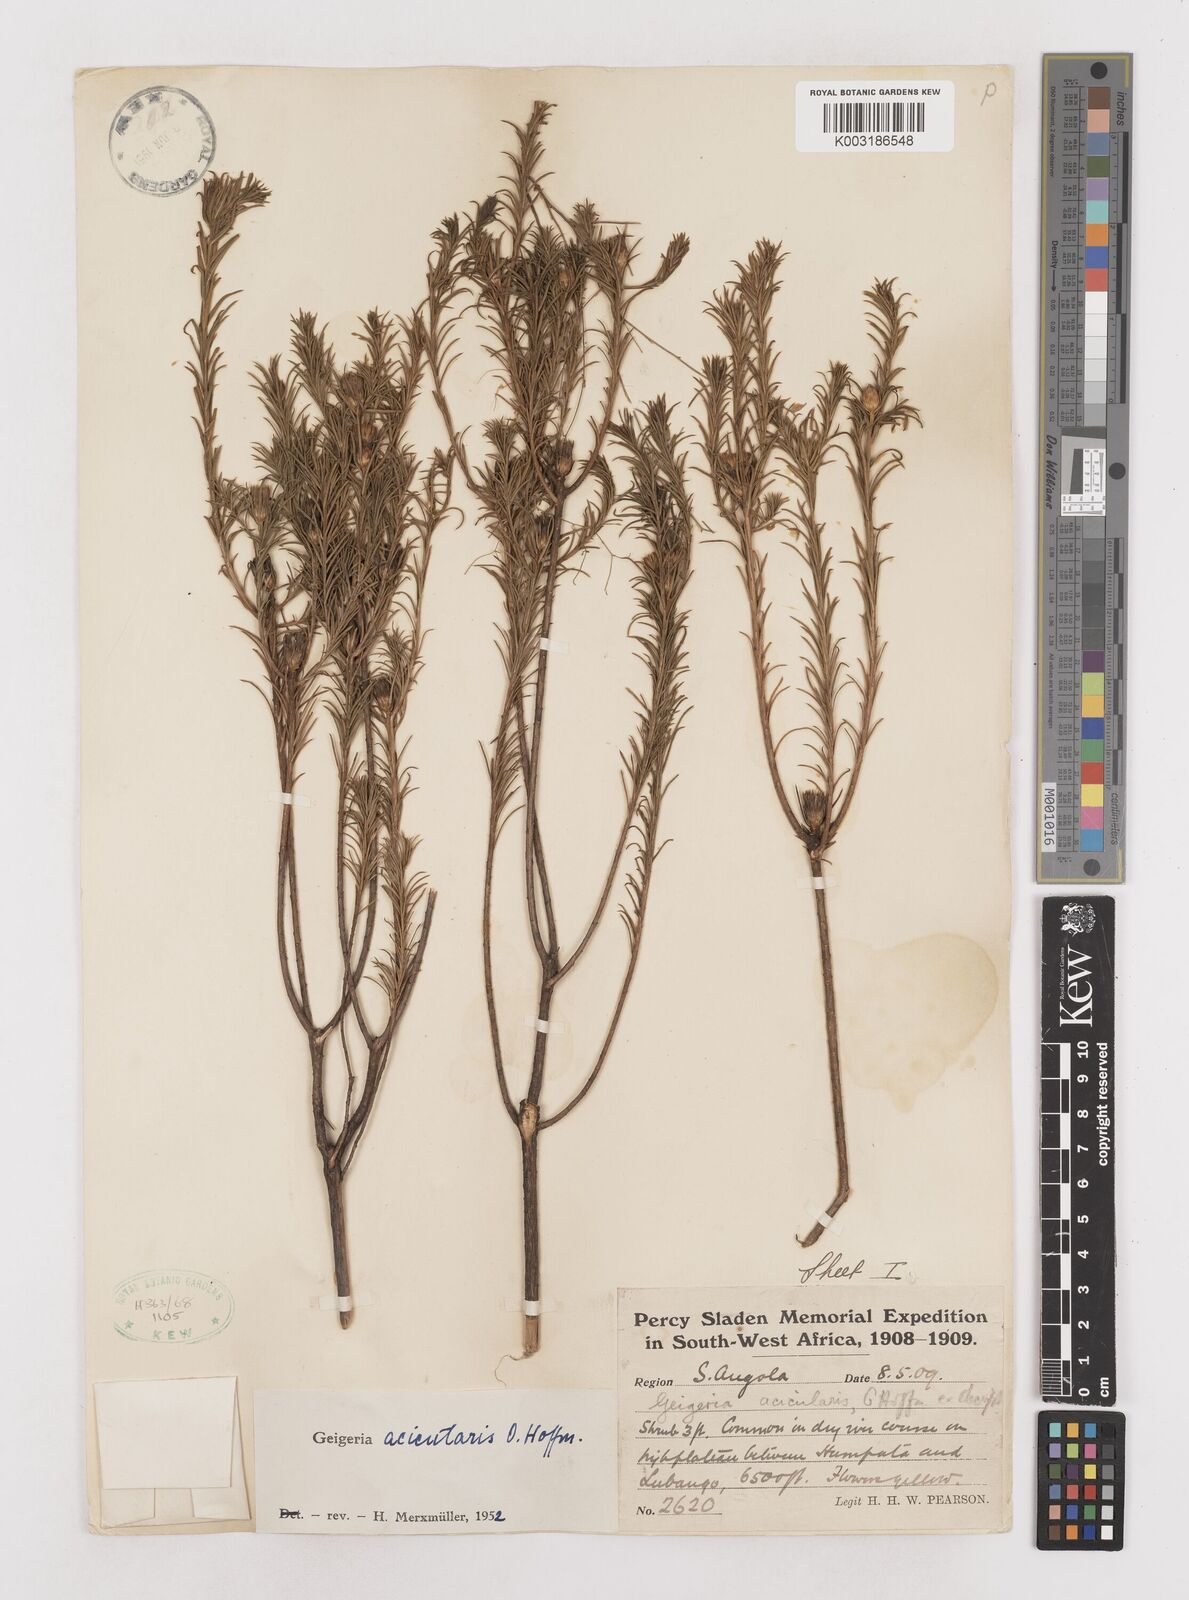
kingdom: Plantae
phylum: Tracheophyta
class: Magnoliopsida
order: Asterales
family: Asteraceae
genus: Geigeria
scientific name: Geigeria acicularis
